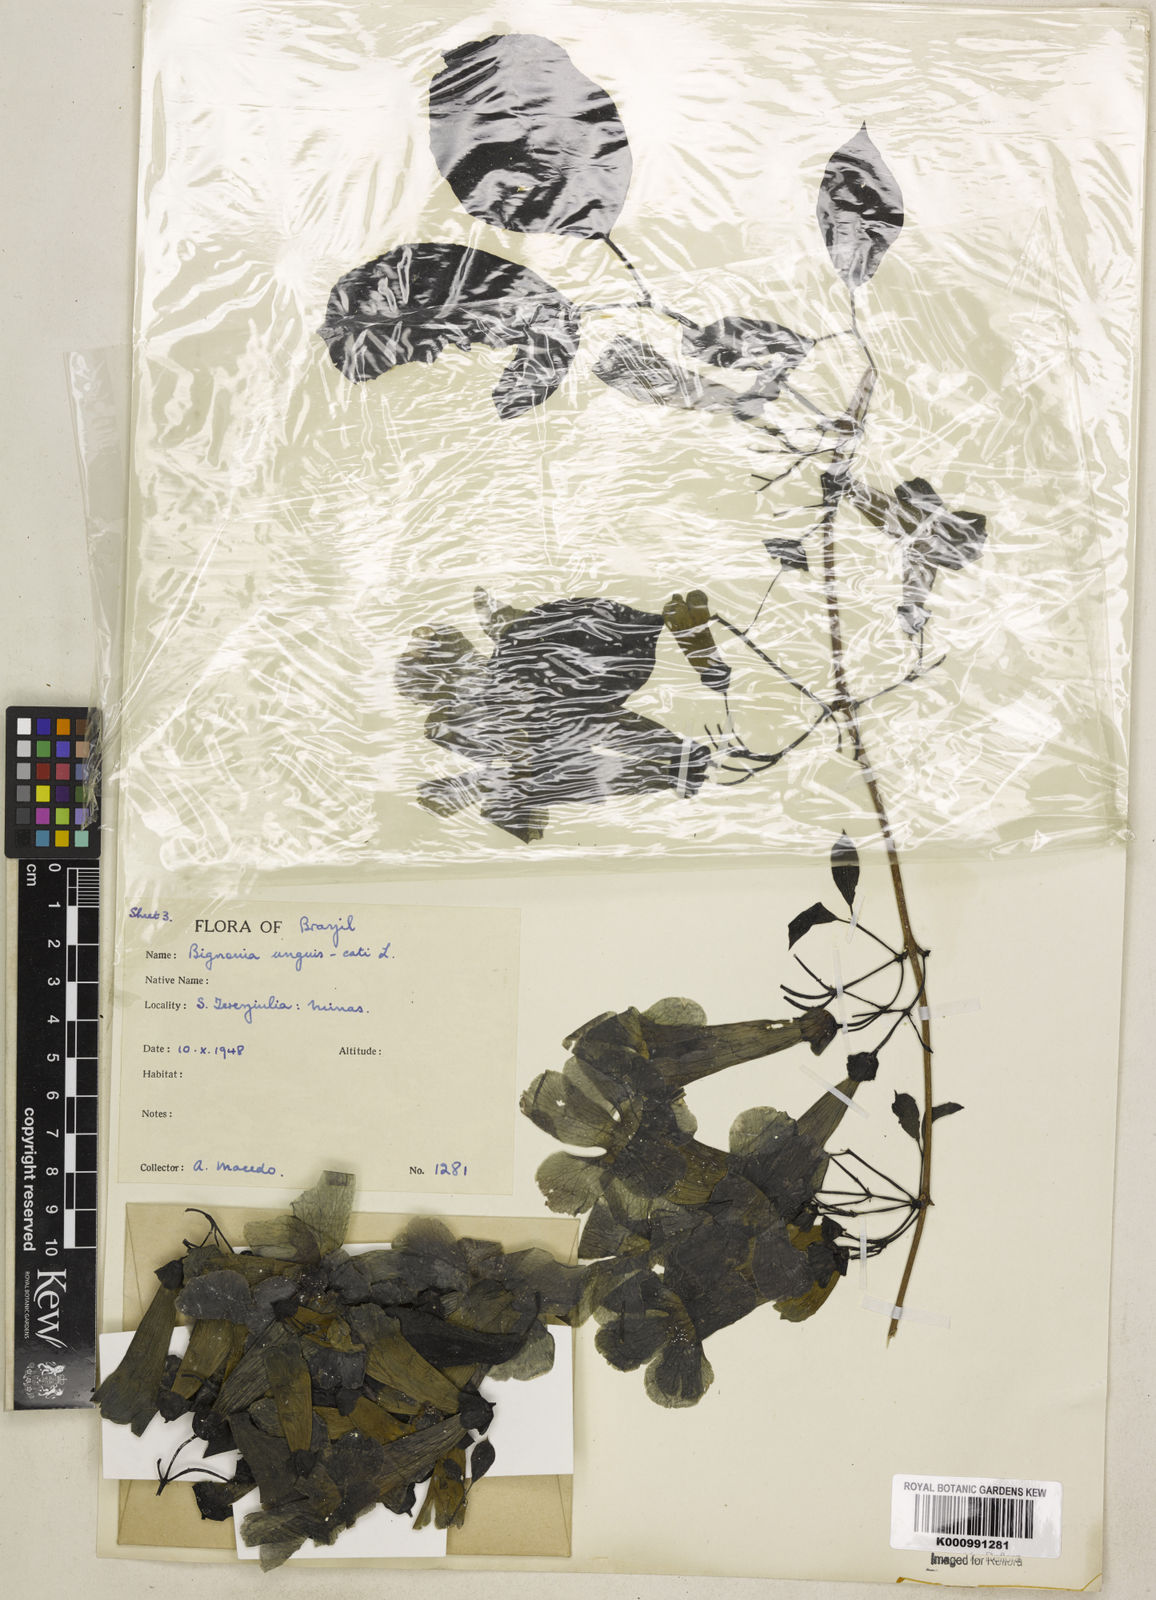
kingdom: Plantae
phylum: Tracheophyta
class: Magnoliopsida
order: Lamiales
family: Bignoniaceae
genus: Dolichandra
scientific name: Dolichandra unguis-cati
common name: Catclaw vine
